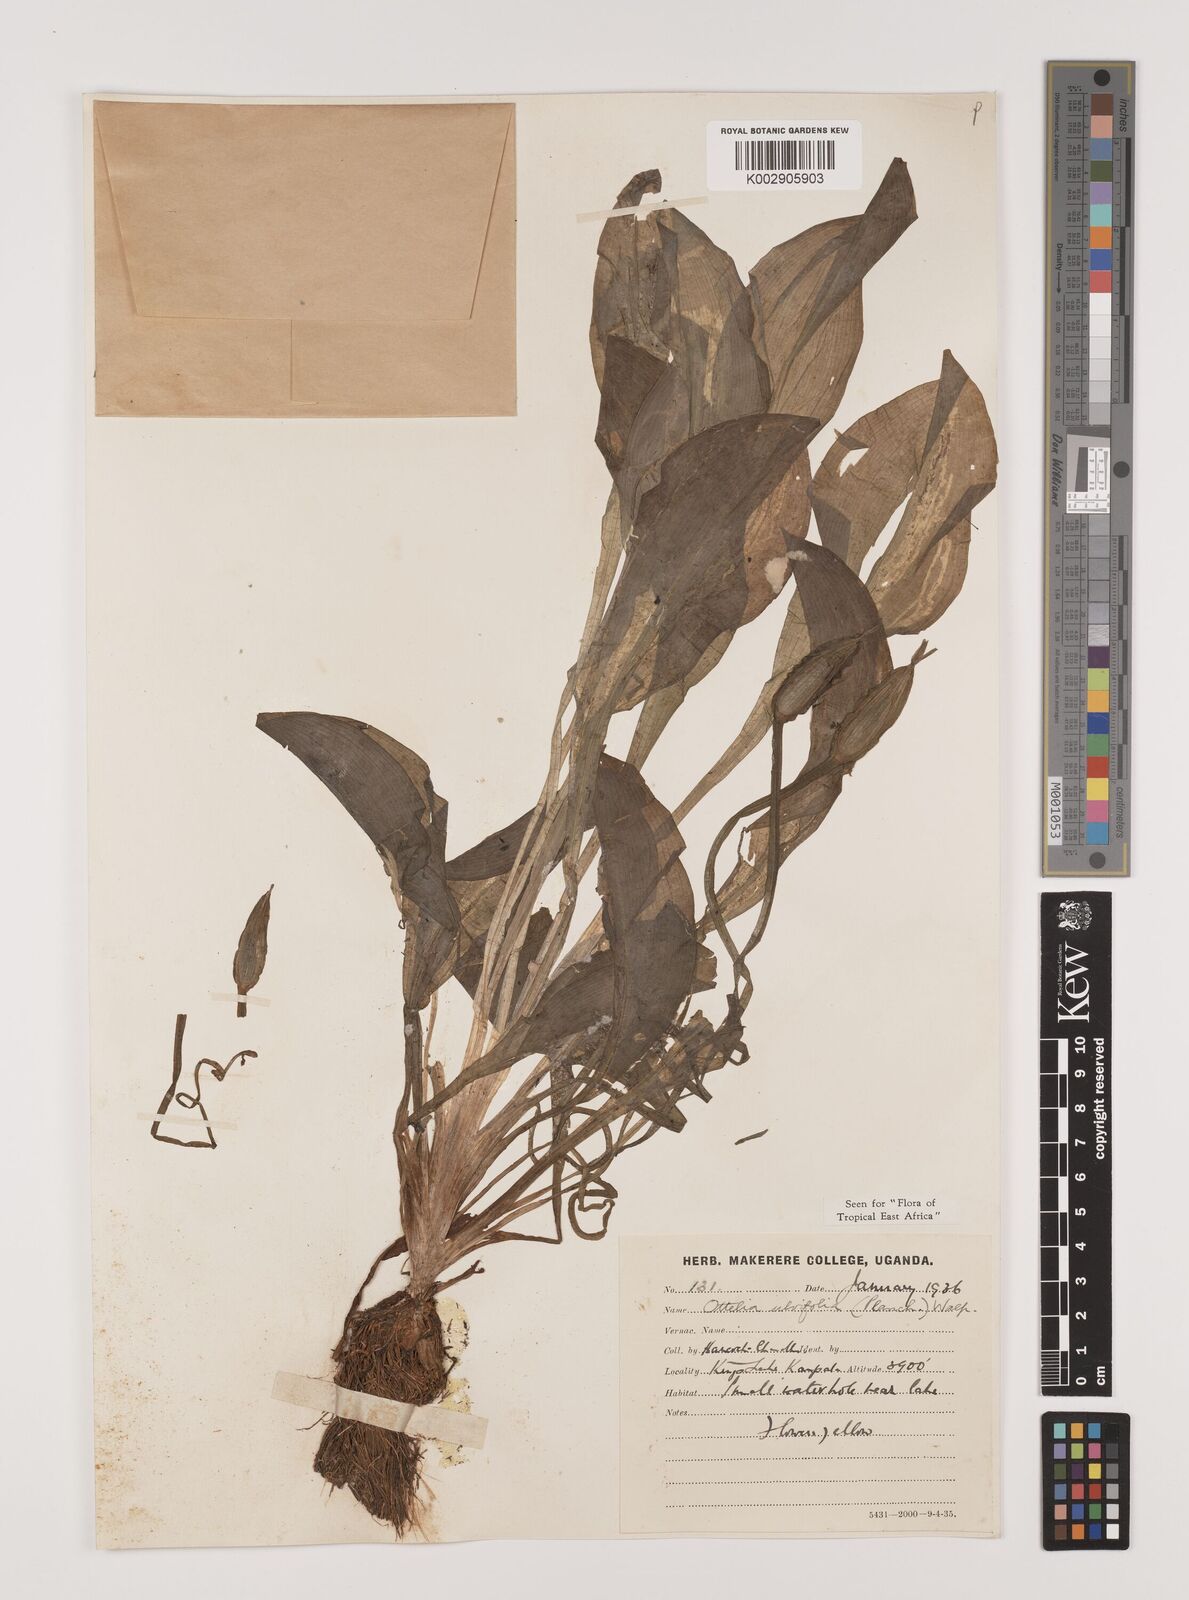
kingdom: Plantae
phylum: Tracheophyta
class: Liliopsida
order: Alismatales
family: Hydrocharitaceae
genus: Ottelia
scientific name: Ottelia ulvifolia
